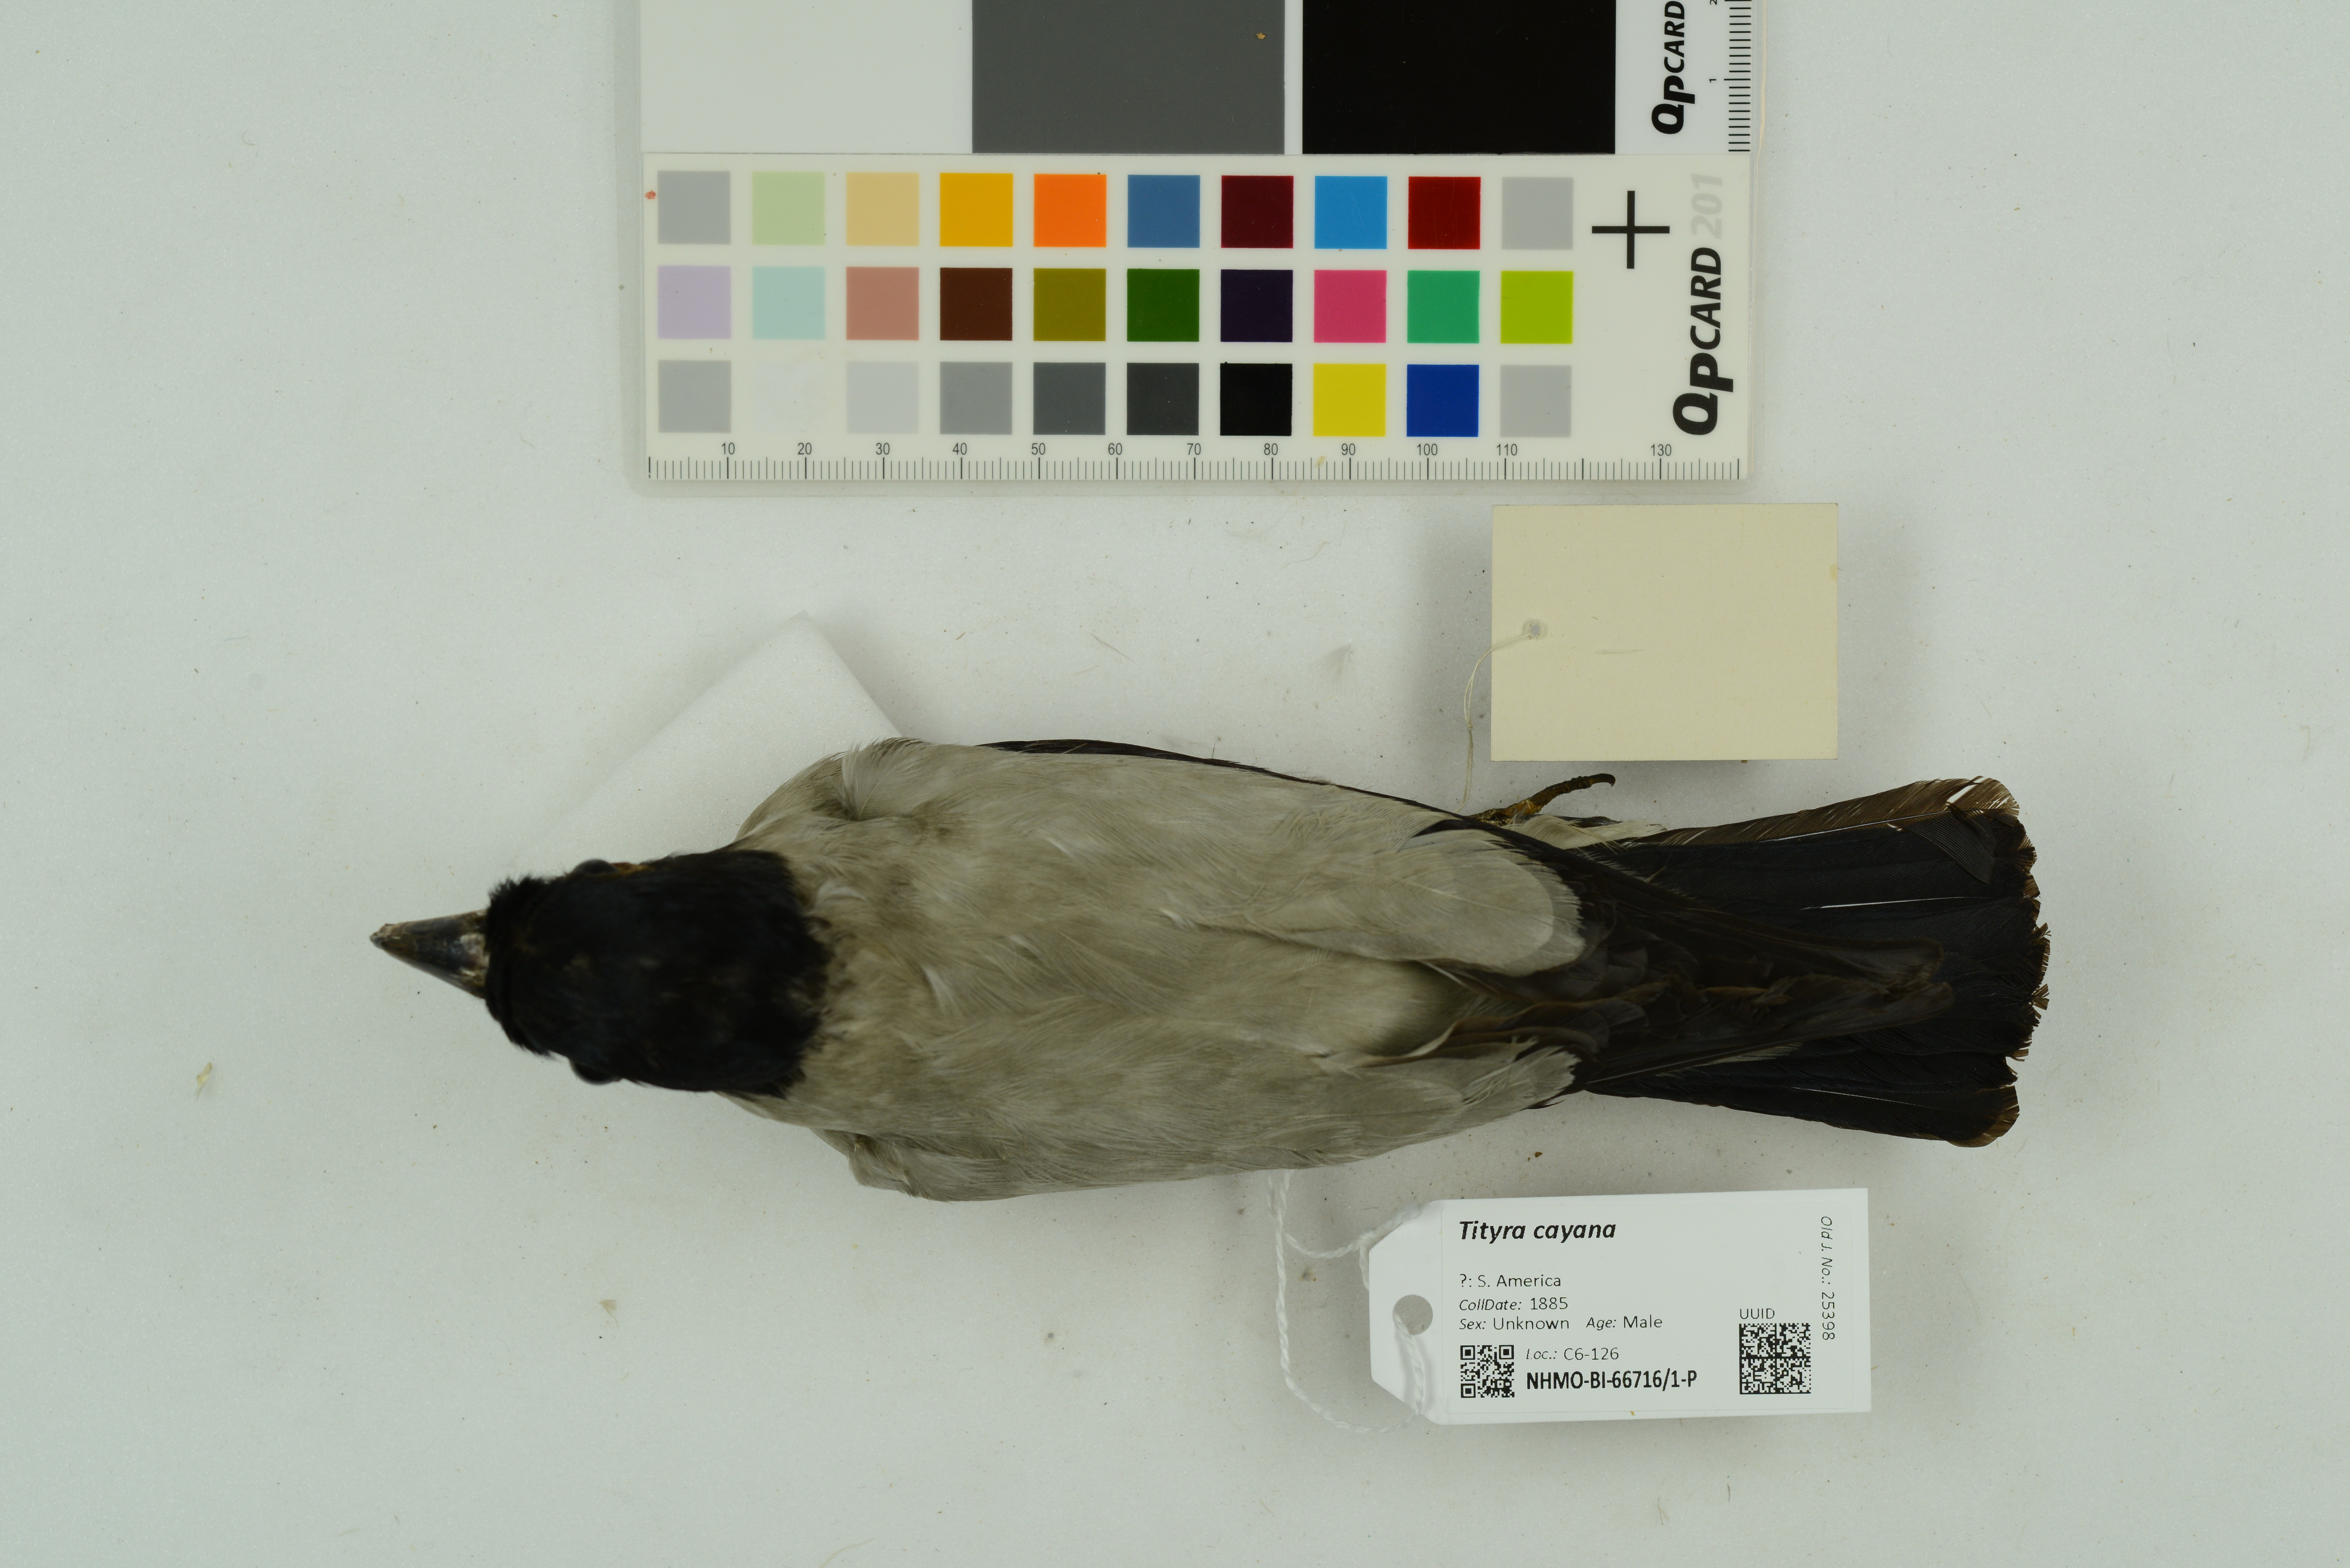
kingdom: Animalia
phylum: Chordata
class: Aves
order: Passeriformes
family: Cotingidae
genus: Tityra
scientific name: Tityra cayana
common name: Black-tailed tityra
